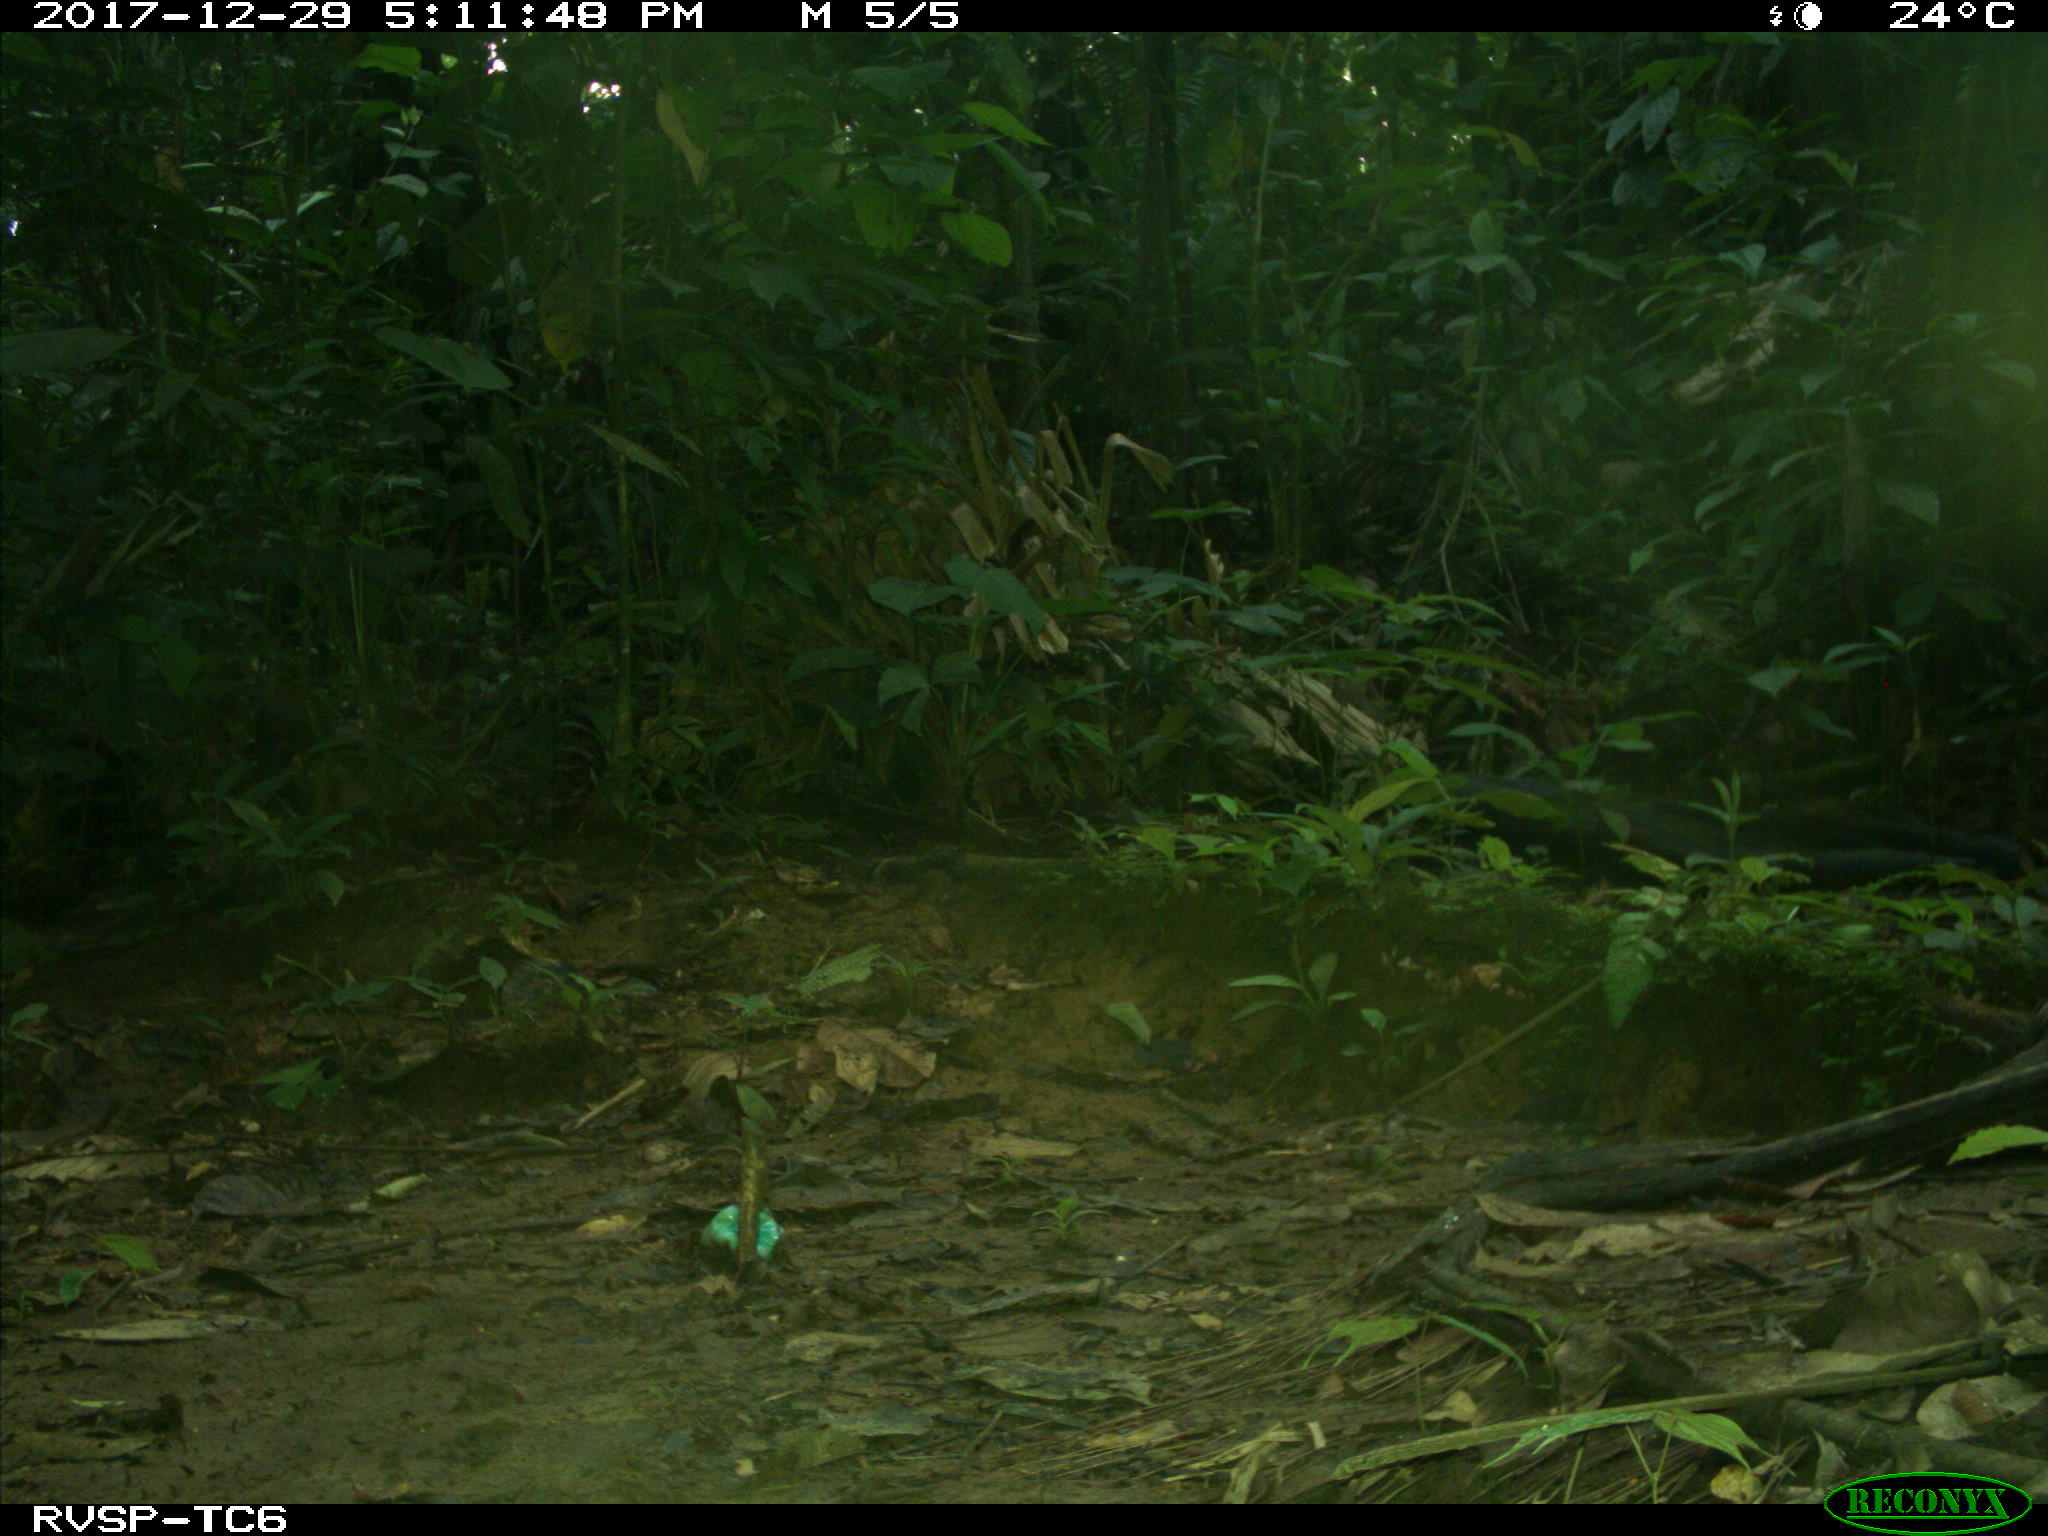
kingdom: Animalia
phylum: Chordata
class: Mammalia
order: Rodentia
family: Dasyproctidae
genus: Dasyprocta
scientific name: Dasyprocta punctata
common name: Central american agouti
